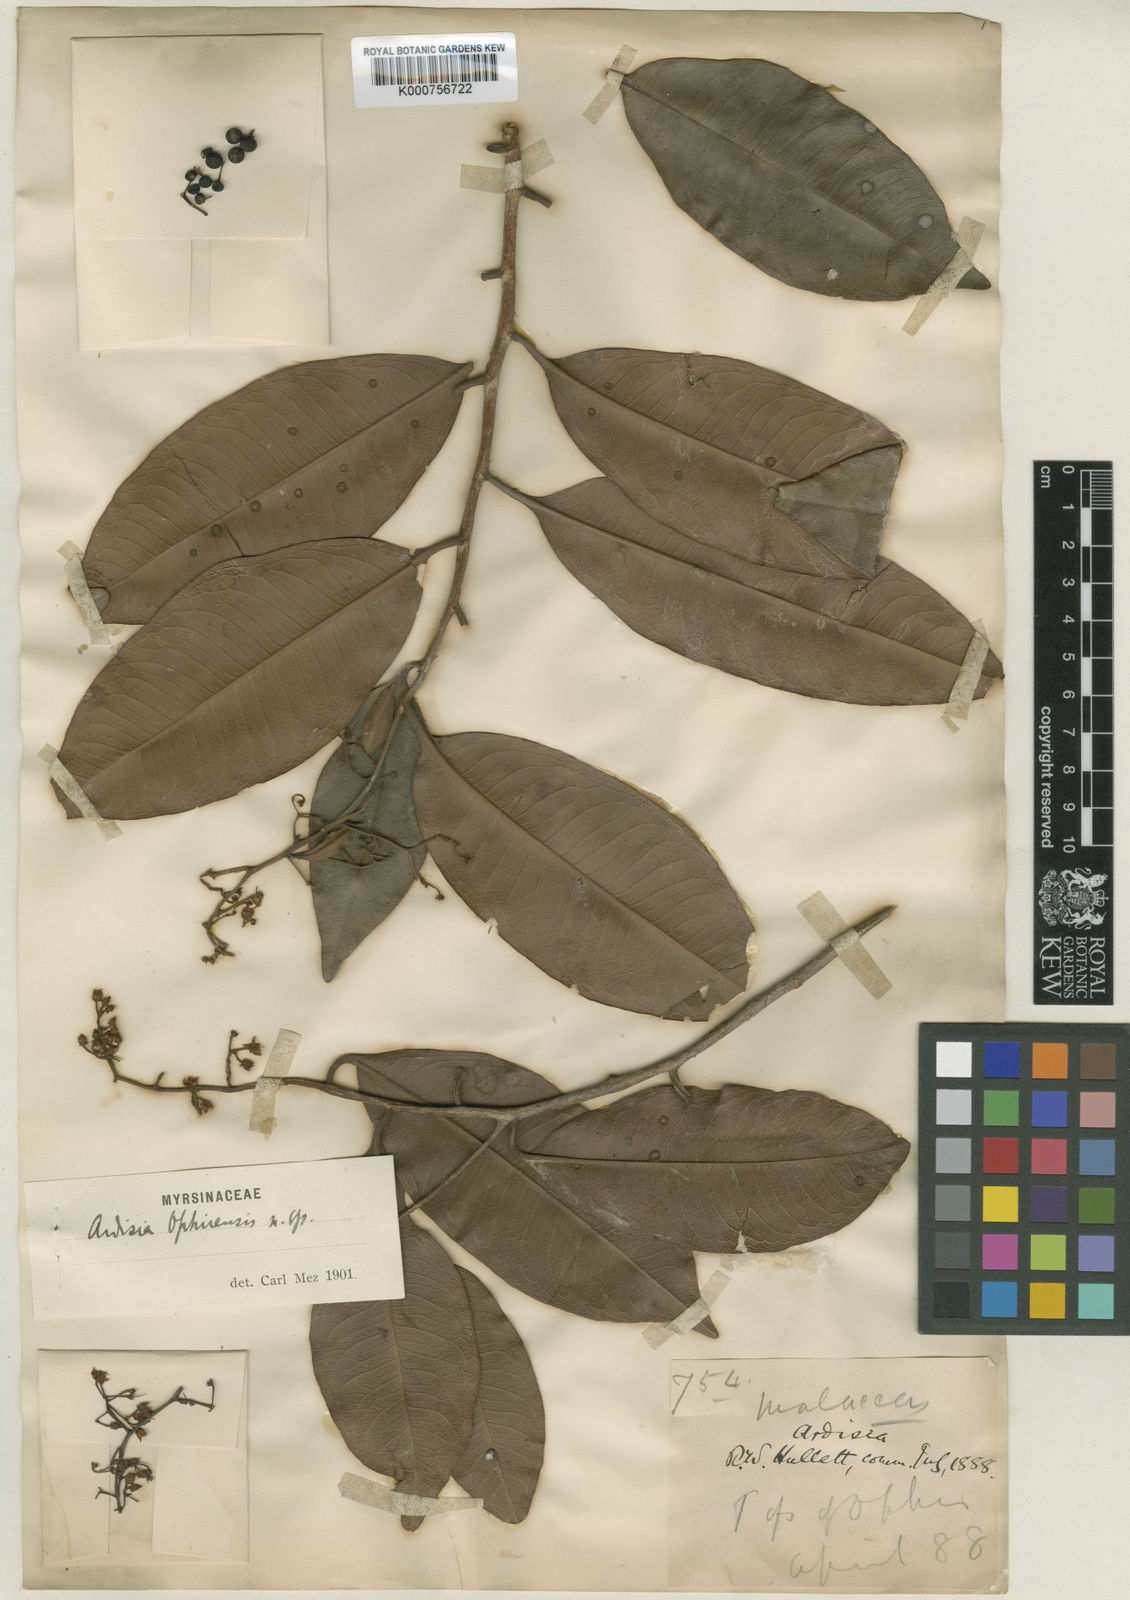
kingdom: Plantae
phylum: Tracheophyta
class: Magnoliopsida
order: Ericales
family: Primulaceae
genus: Ardisia
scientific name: Ardisia ophirensis
